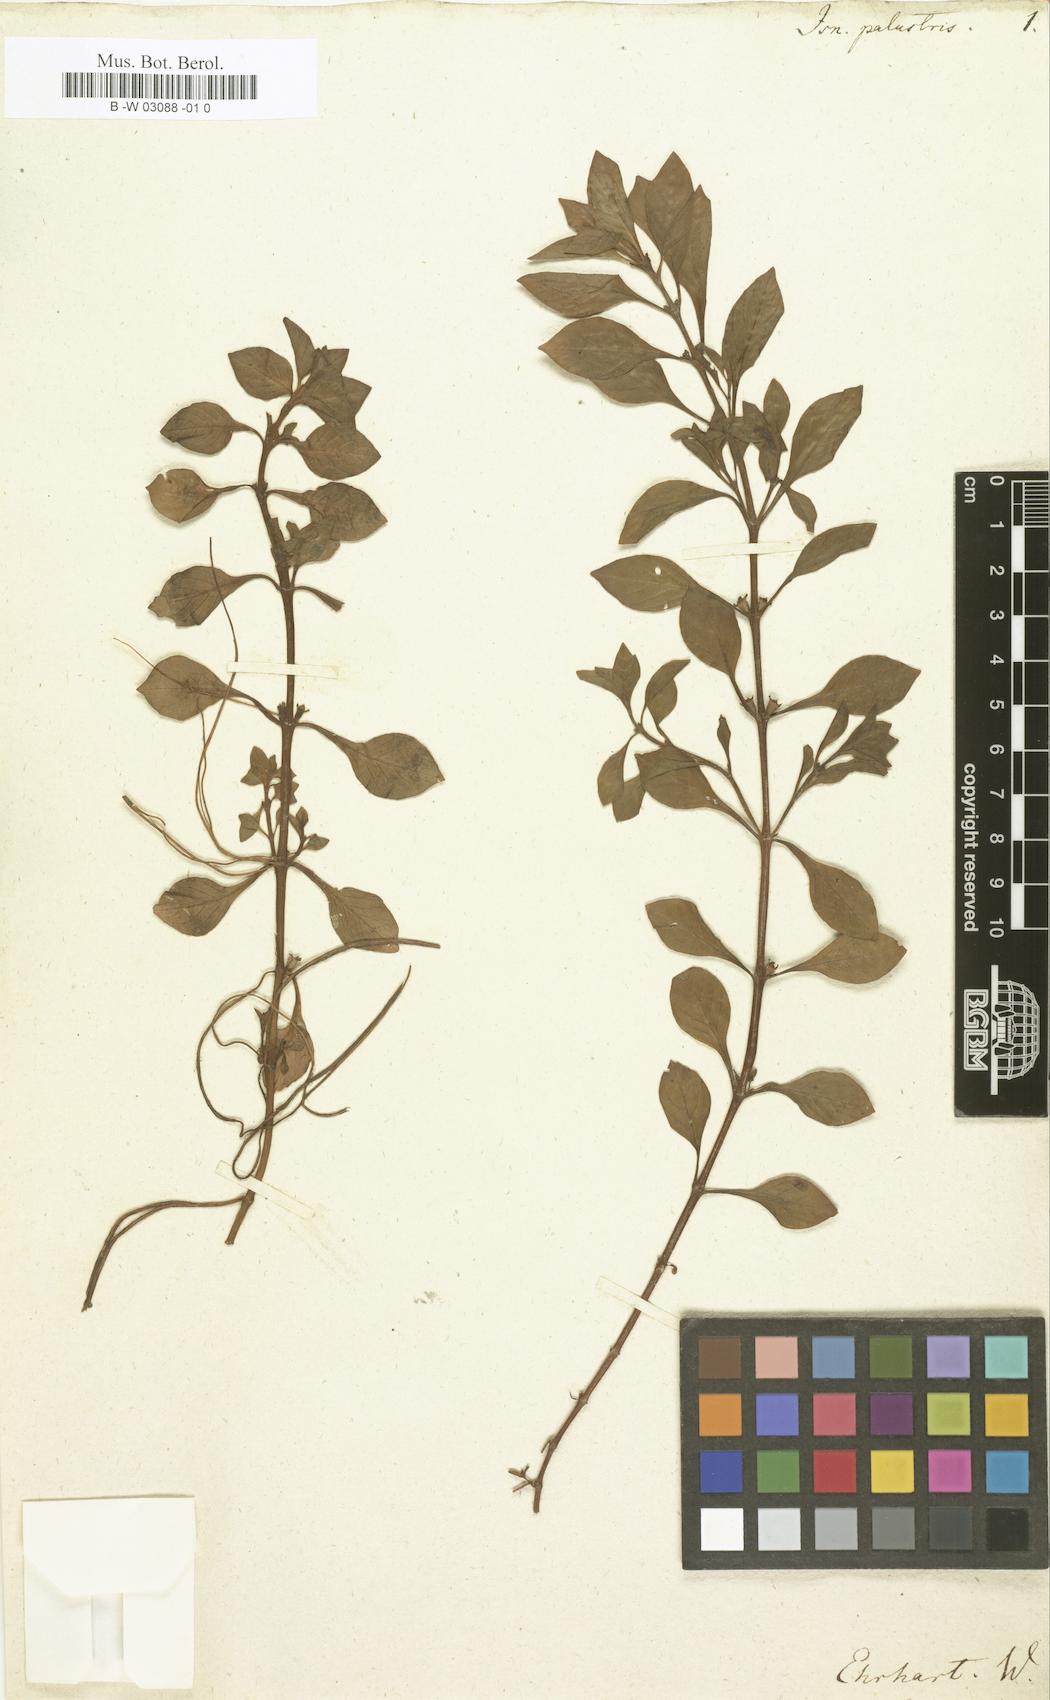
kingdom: Plantae
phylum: Tracheophyta
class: Magnoliopsida
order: Myrtales
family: Onagraceae
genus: Ludwigia
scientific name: Ludwigia palustris
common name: Hampshire-purslane
